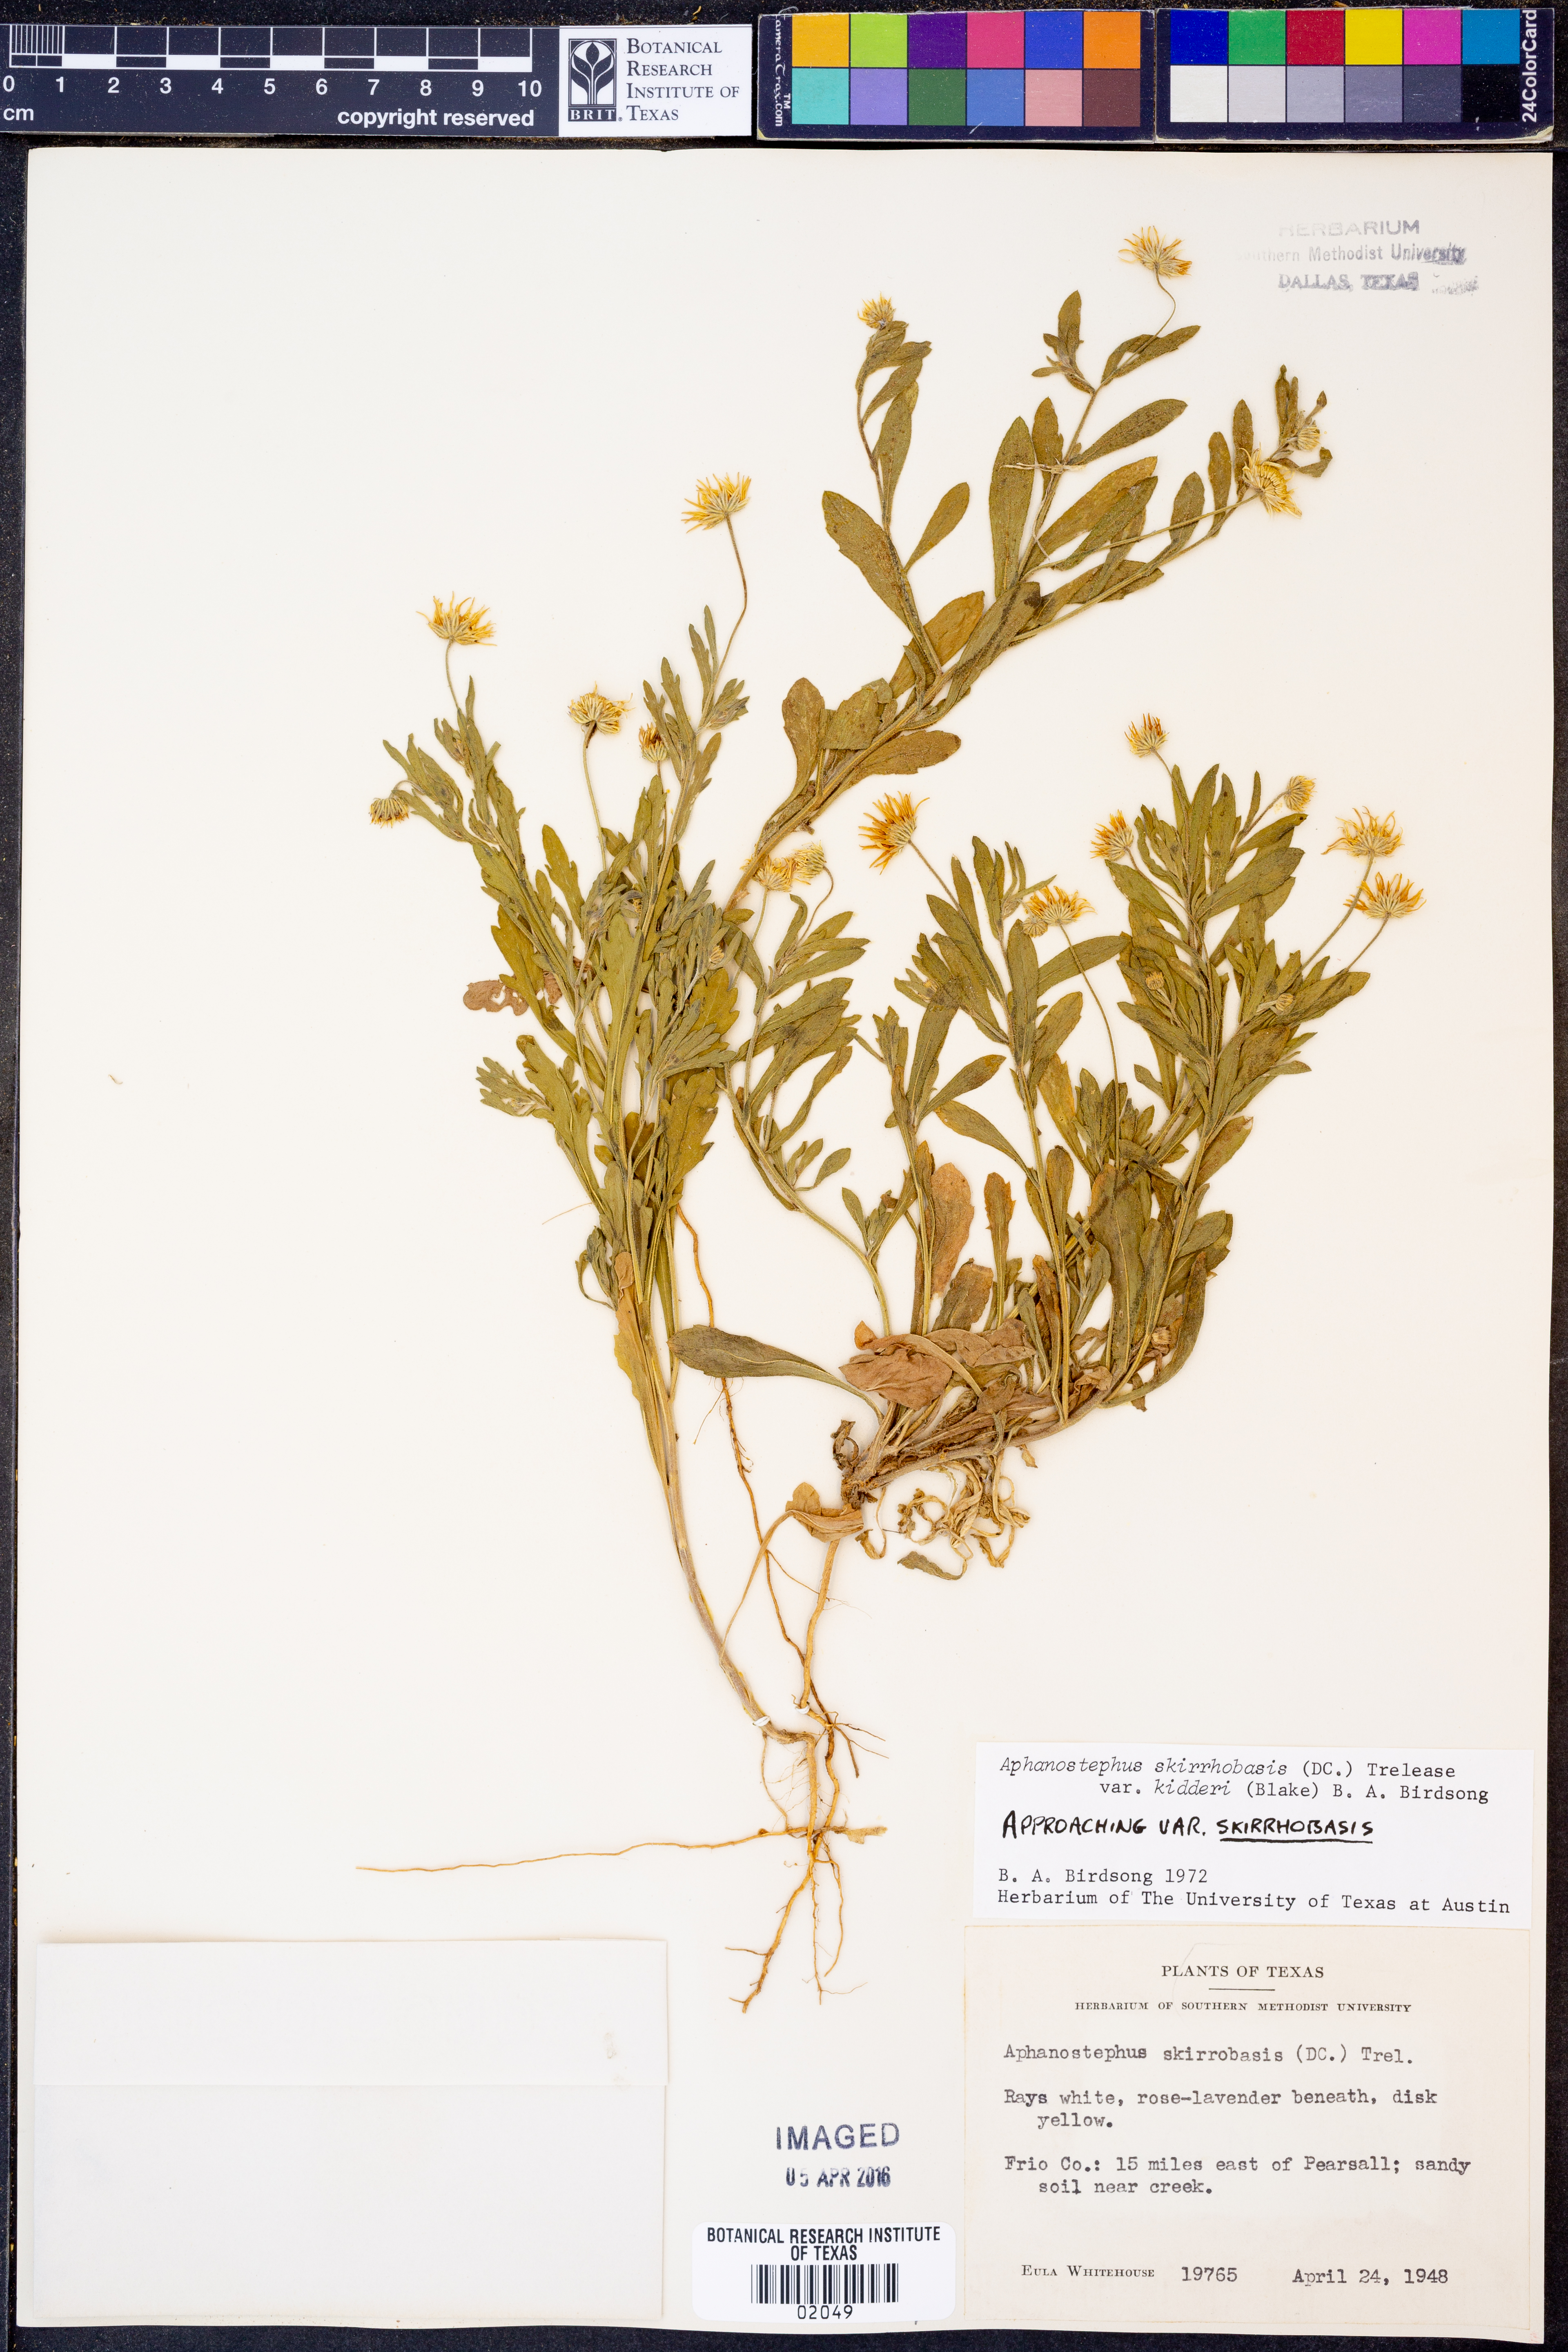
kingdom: Plantae
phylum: Tracheophyta
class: Magnoliopsida
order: Asterales
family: Asteraceae
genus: Aphanostephus
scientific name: Aphanostephus skirrhobasis
